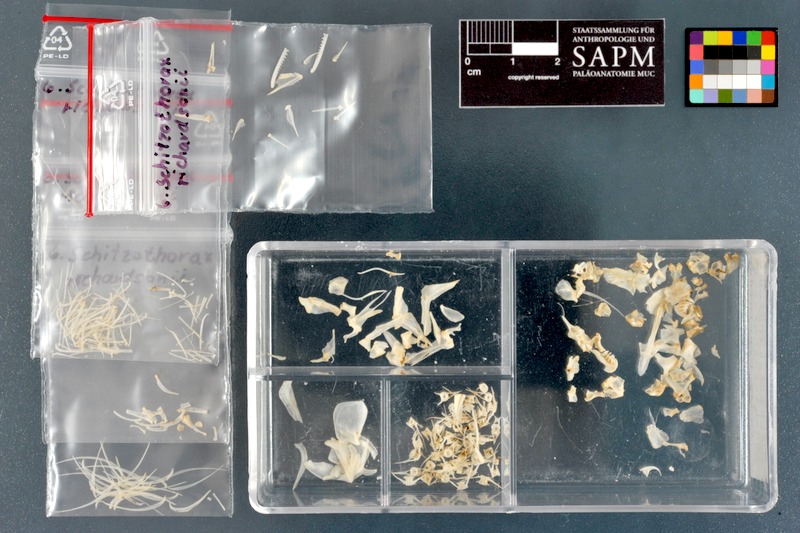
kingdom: Animalia
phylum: Chordata
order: Cypriniformes
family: Cyprinidae
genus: Schizothorax
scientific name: Schizothorax richardsonii
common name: Alawan snowtrout
